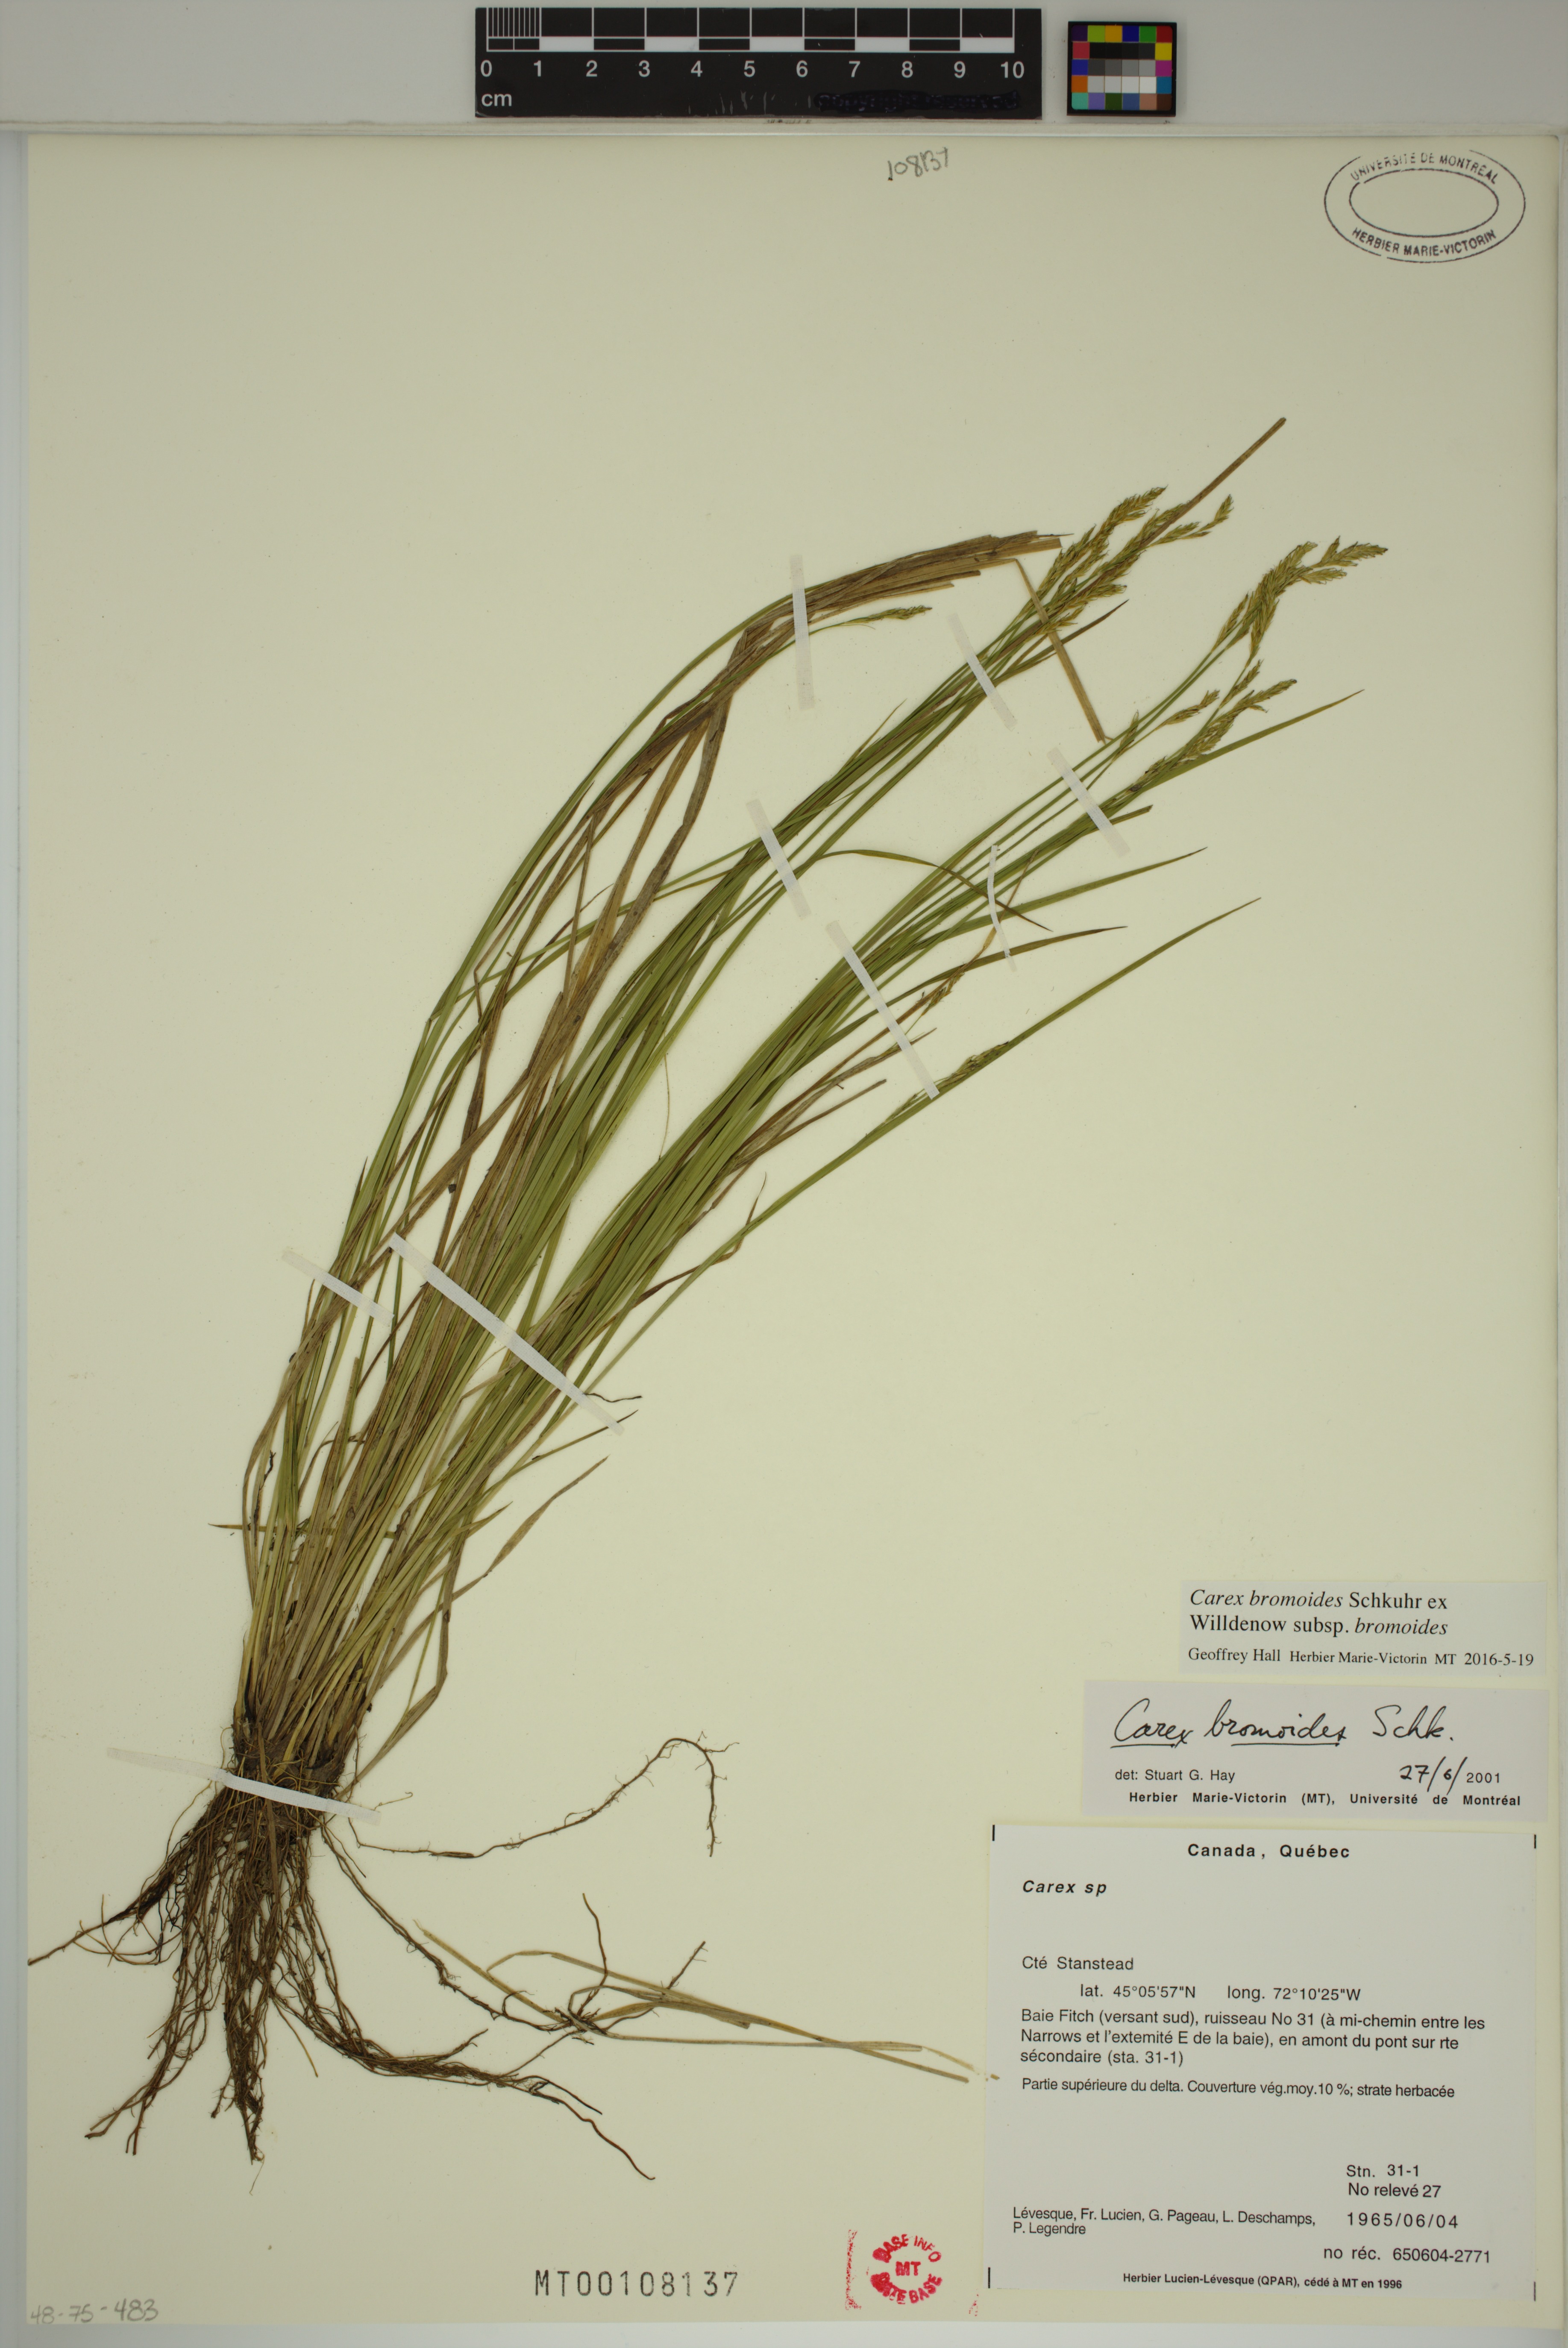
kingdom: Plantae
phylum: Tracheophyta
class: Liliopsida
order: Poales
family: Cyperaceae
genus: Carex
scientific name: Carex bromoides
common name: Brome hummock sedge
